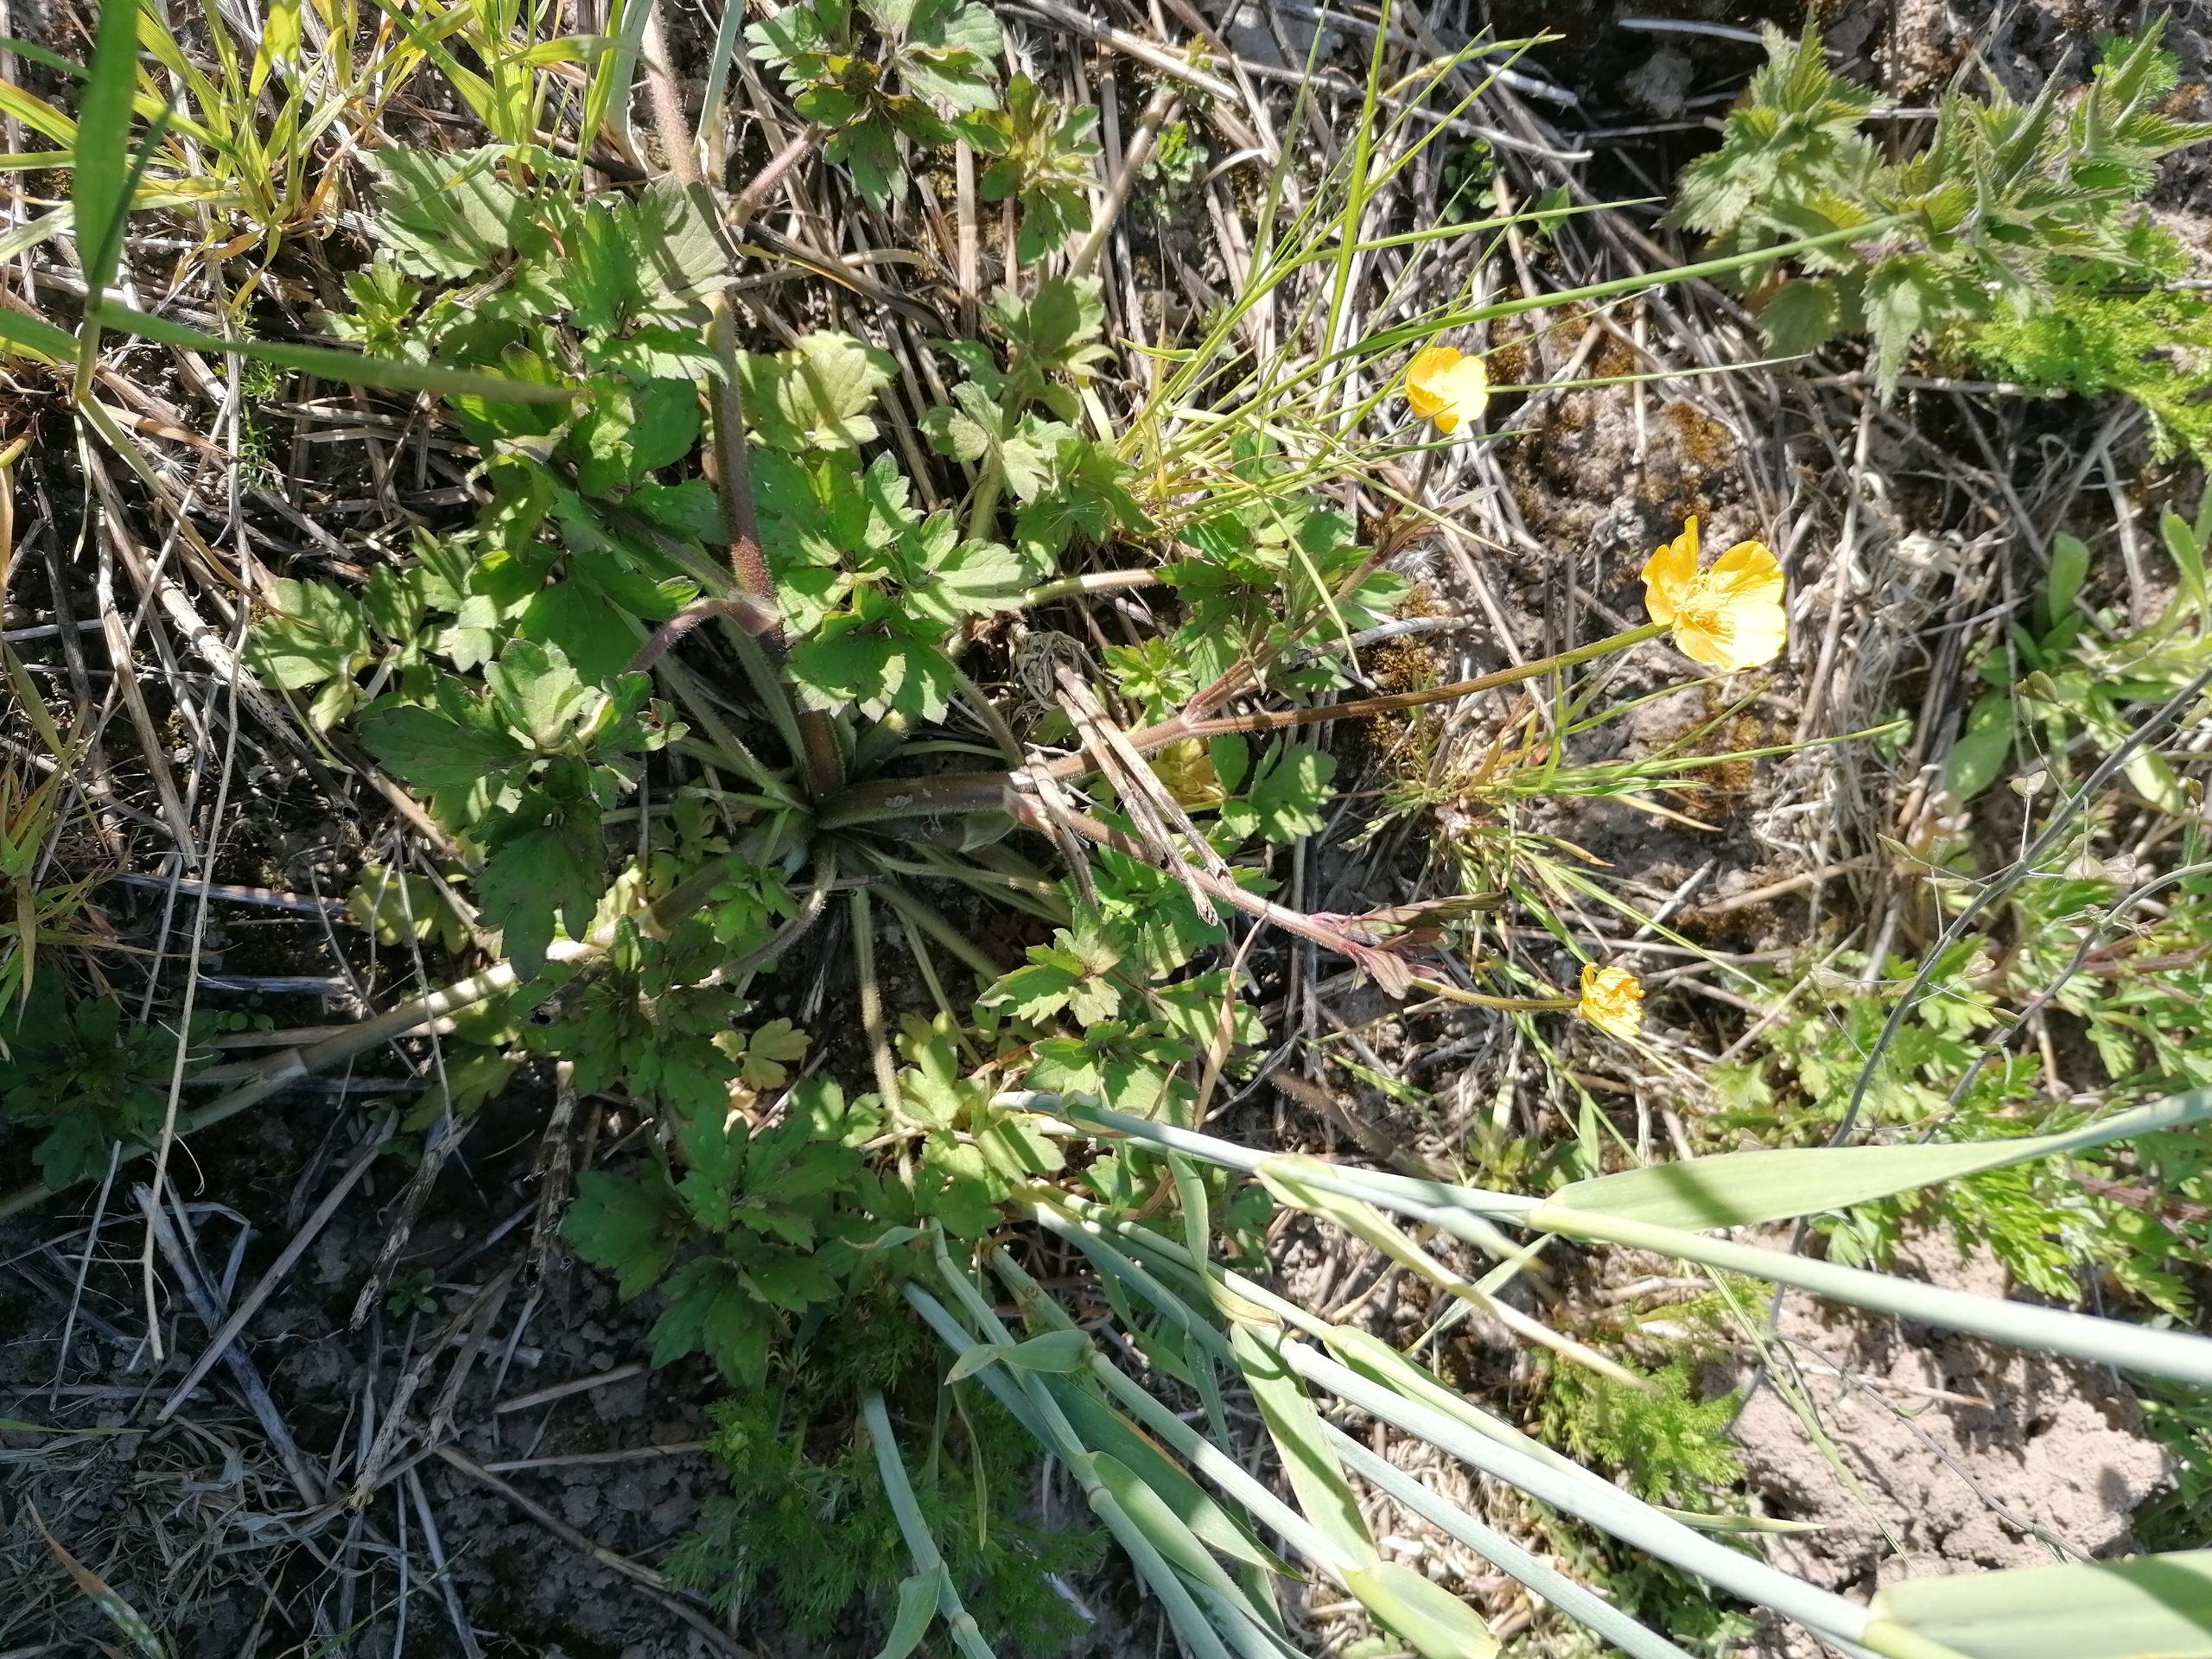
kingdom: Plantae
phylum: Tracheophyta
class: Magnoliopsida
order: Ranunculales
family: Ranunculaceae
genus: Ranunculus
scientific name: Ranunculus repens
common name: Lav ranunkel
